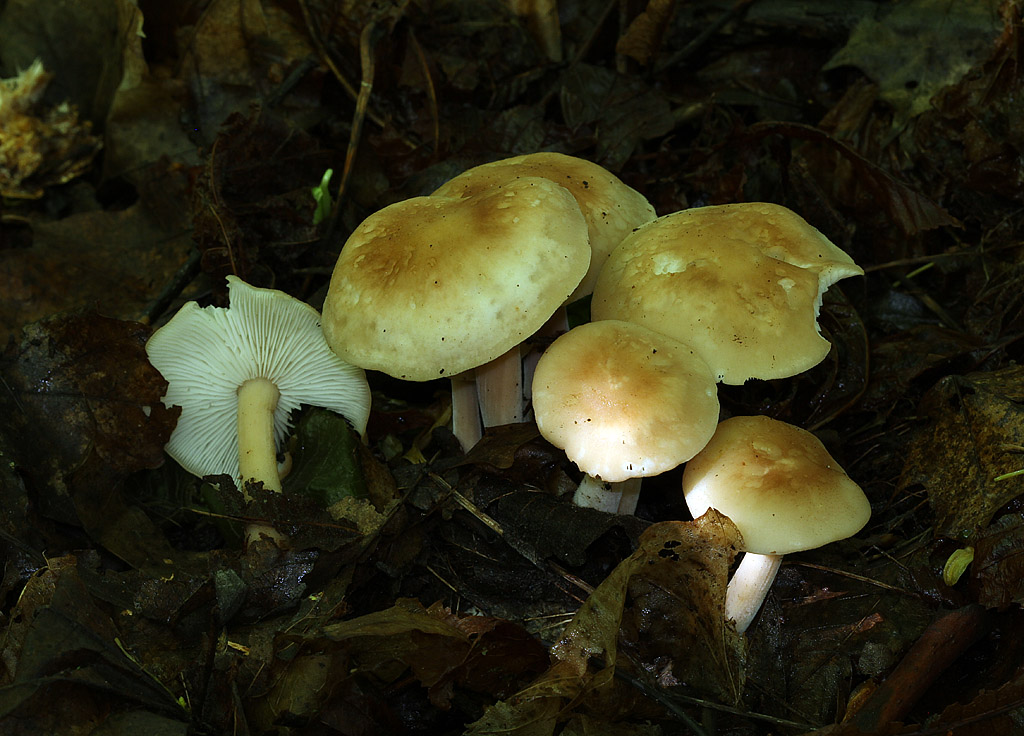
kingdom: Fungi
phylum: Basidiomycota
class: Agaricomycetes
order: Agaricales
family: Omphalotaceae
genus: Gymnopus
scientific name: Gymnopus hariolorum
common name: hvidkåls-fladhat
